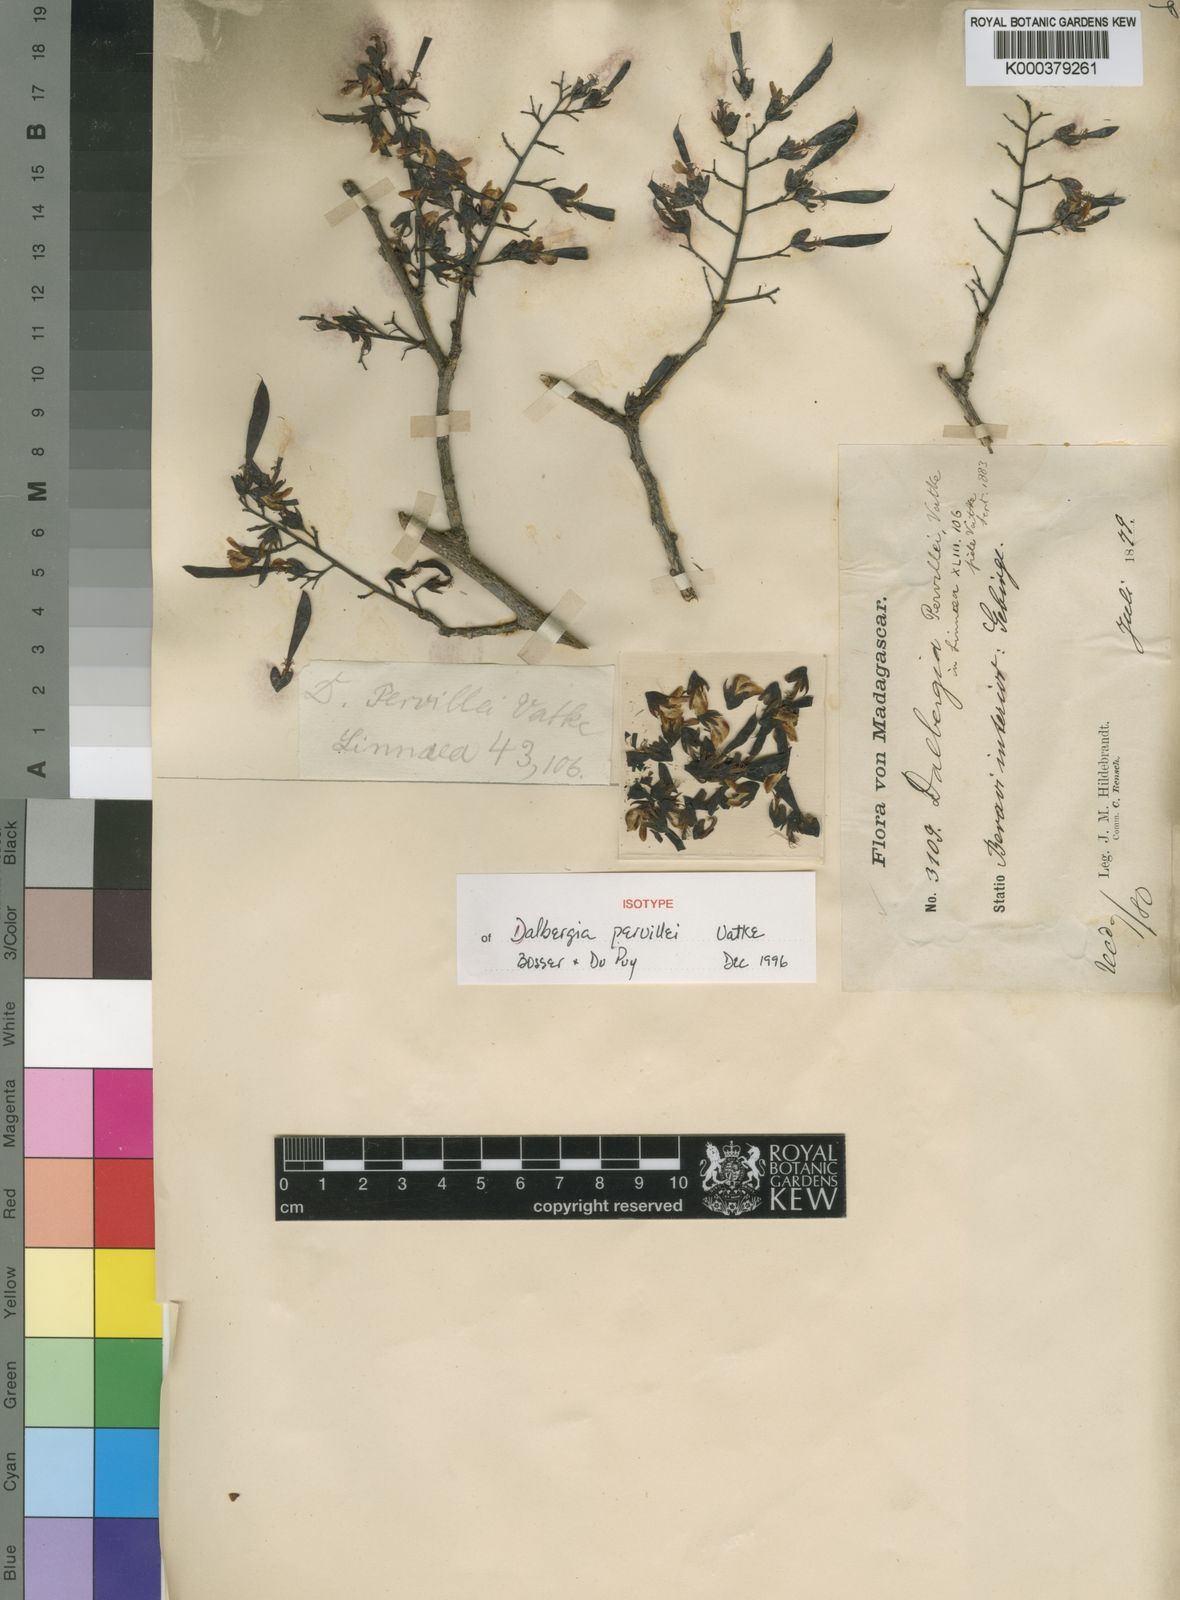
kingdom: Plantae
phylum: Tracheophyta
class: Magnoliopsida
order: Fabales
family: Fabaceae
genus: Dalbergia
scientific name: Dalbergia pervillei
